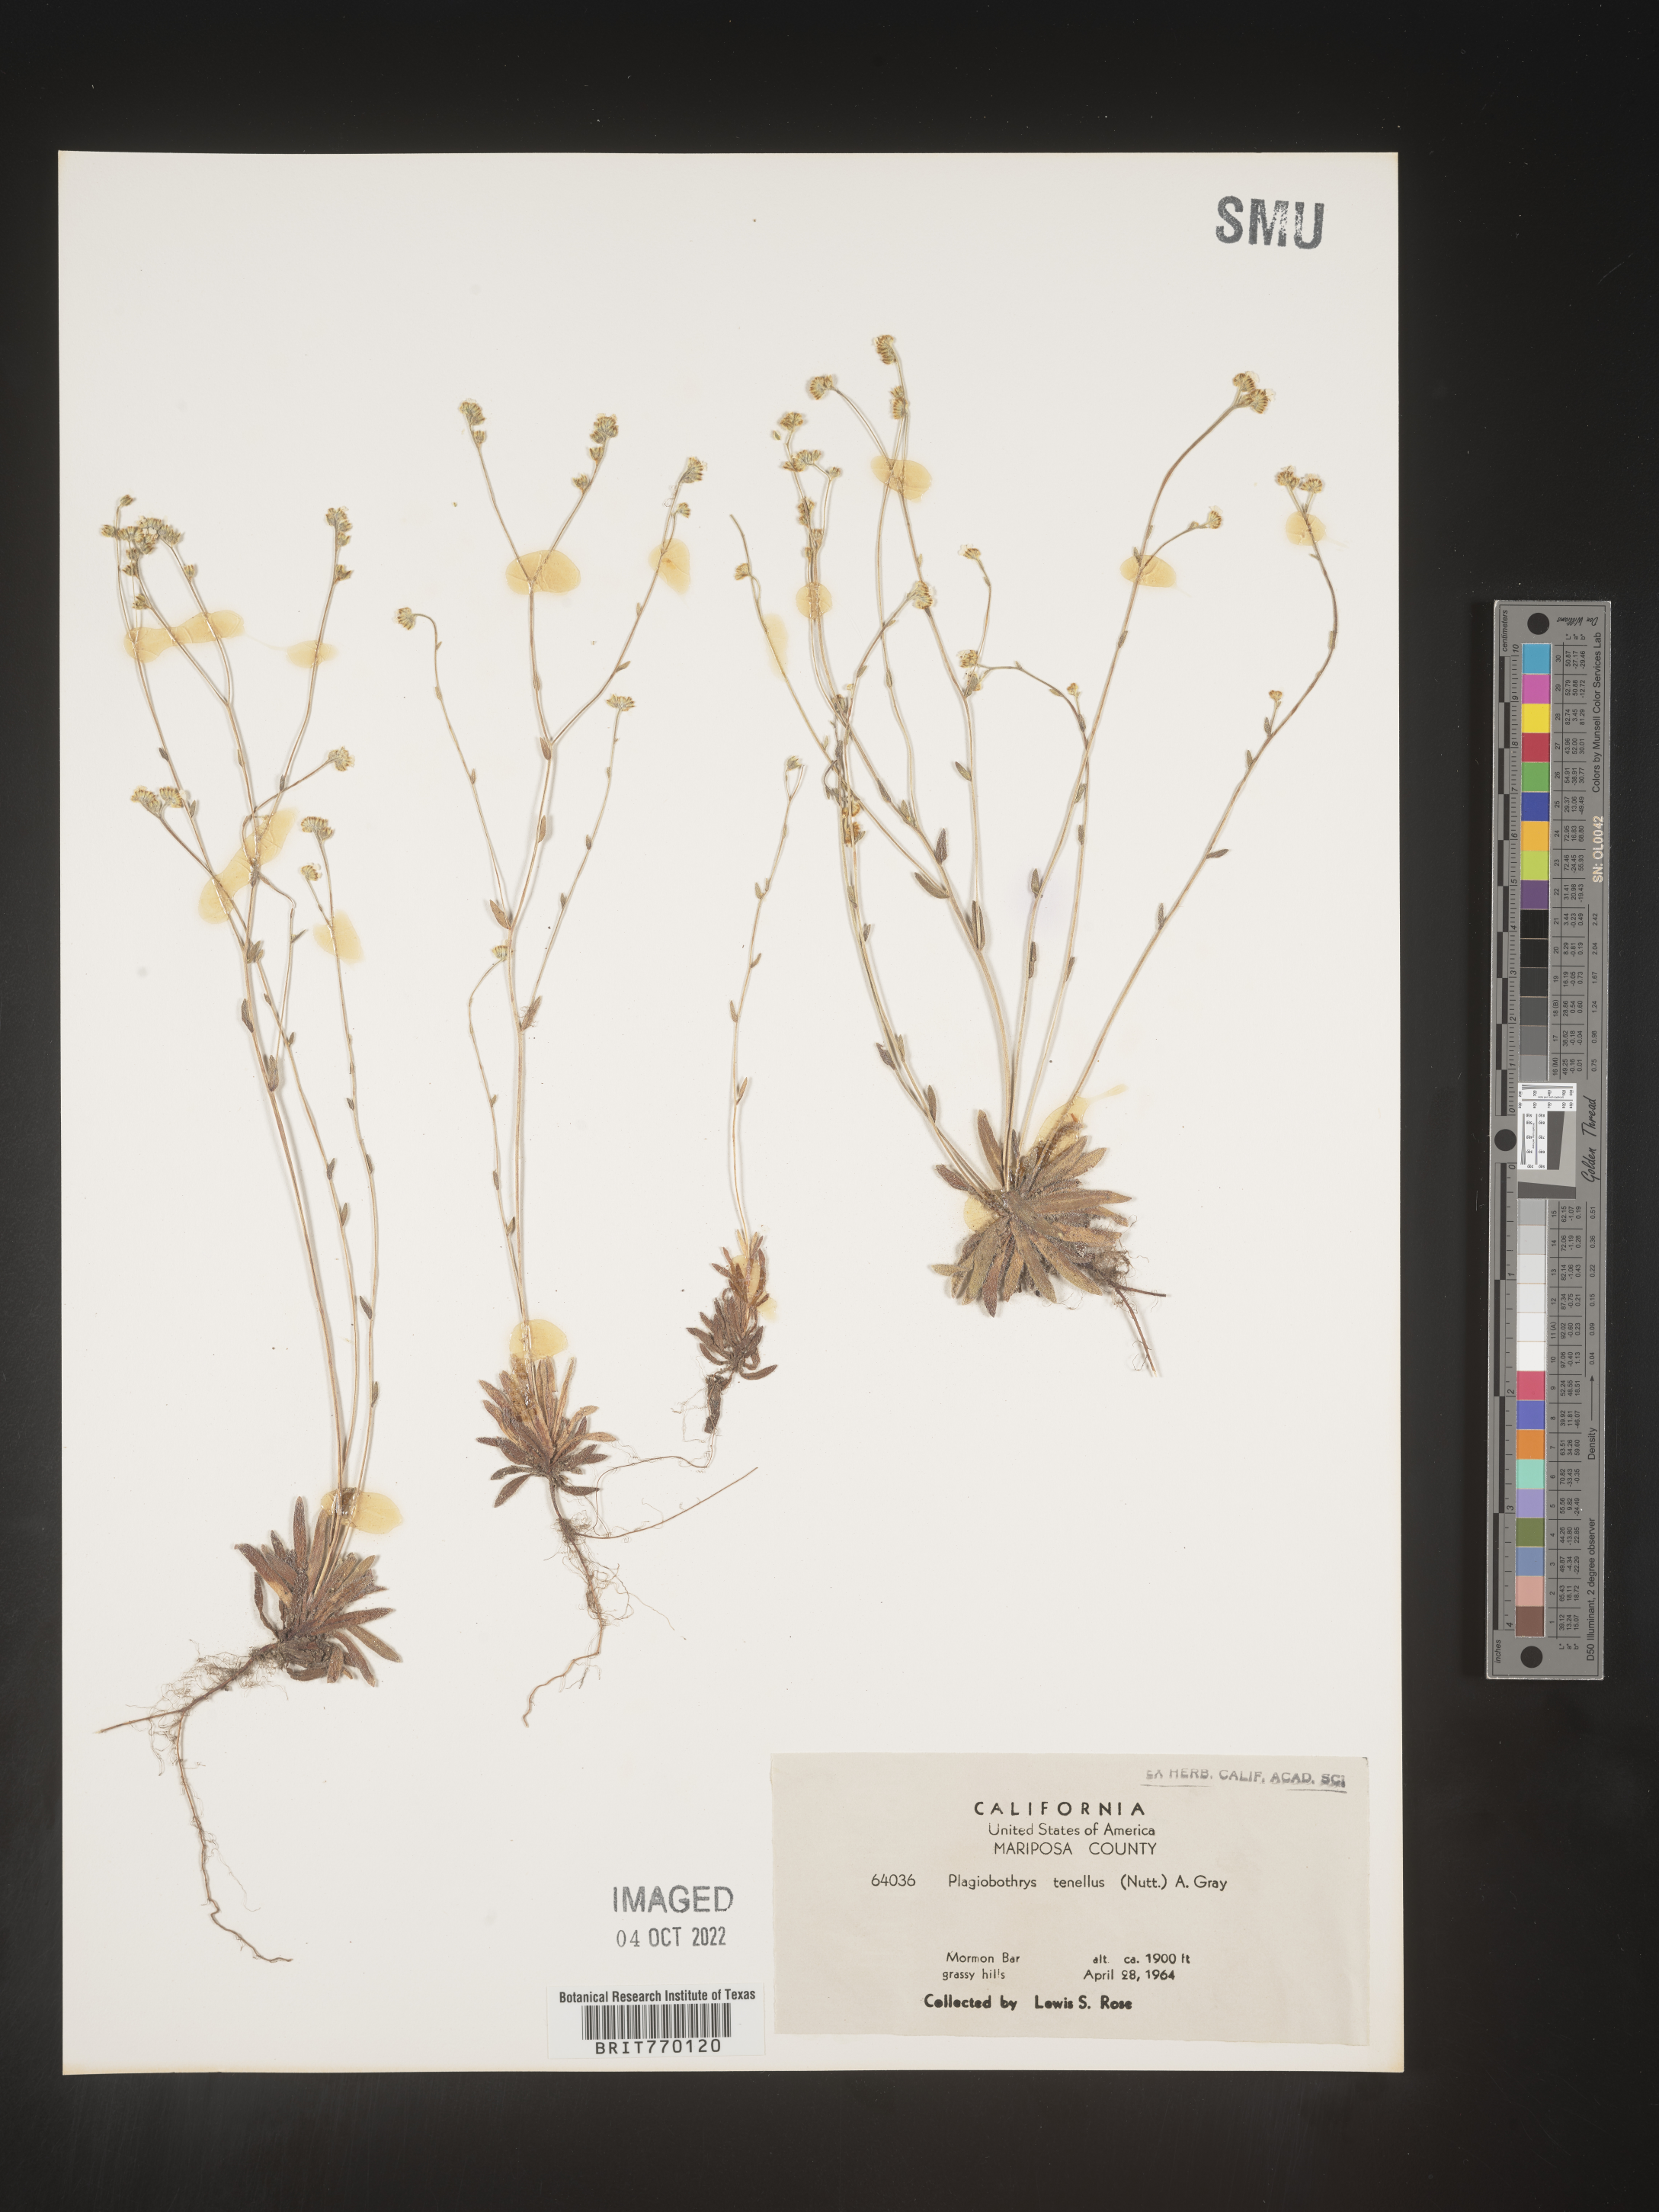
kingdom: Plantae
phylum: Tracheophyta
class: Magnoliopsida
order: Boraginales
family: Boraginaceae
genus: Plagiobothrys
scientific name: Plagiobothrys
